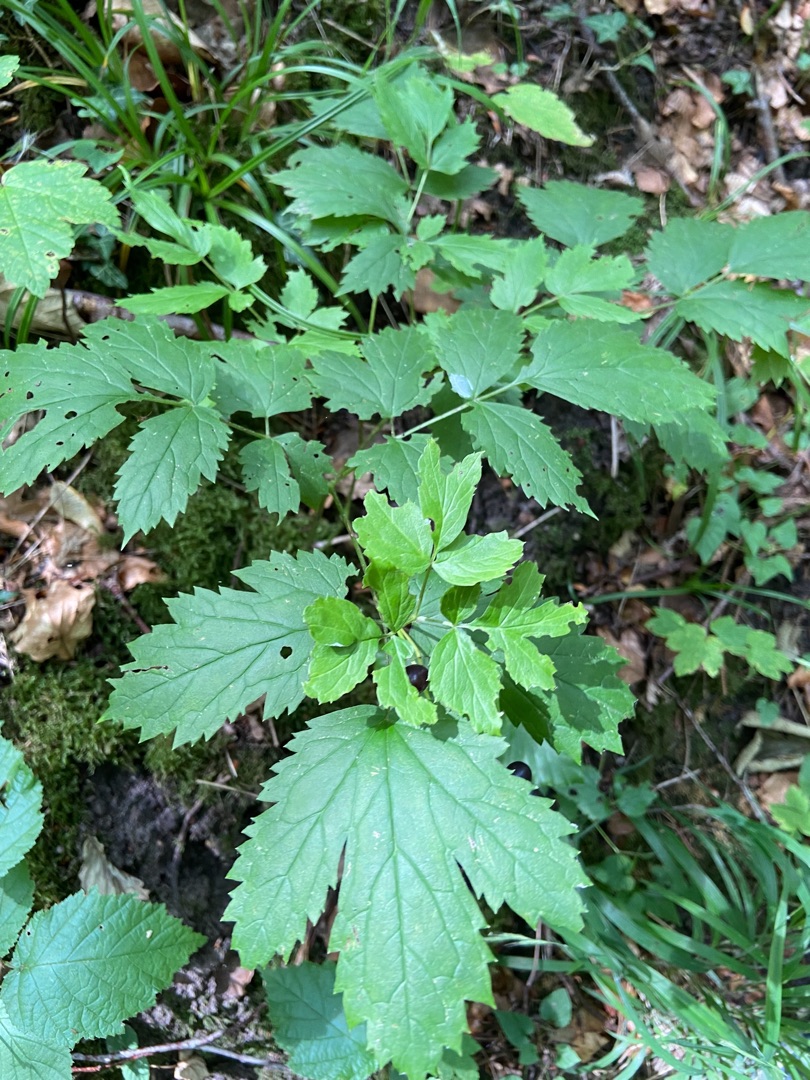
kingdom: Plantae
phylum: Tracheophyta
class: Magnoliopsida
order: Ranunculales
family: Ranunculaceae
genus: Actaea
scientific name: Actaea spicata
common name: Druemunke
